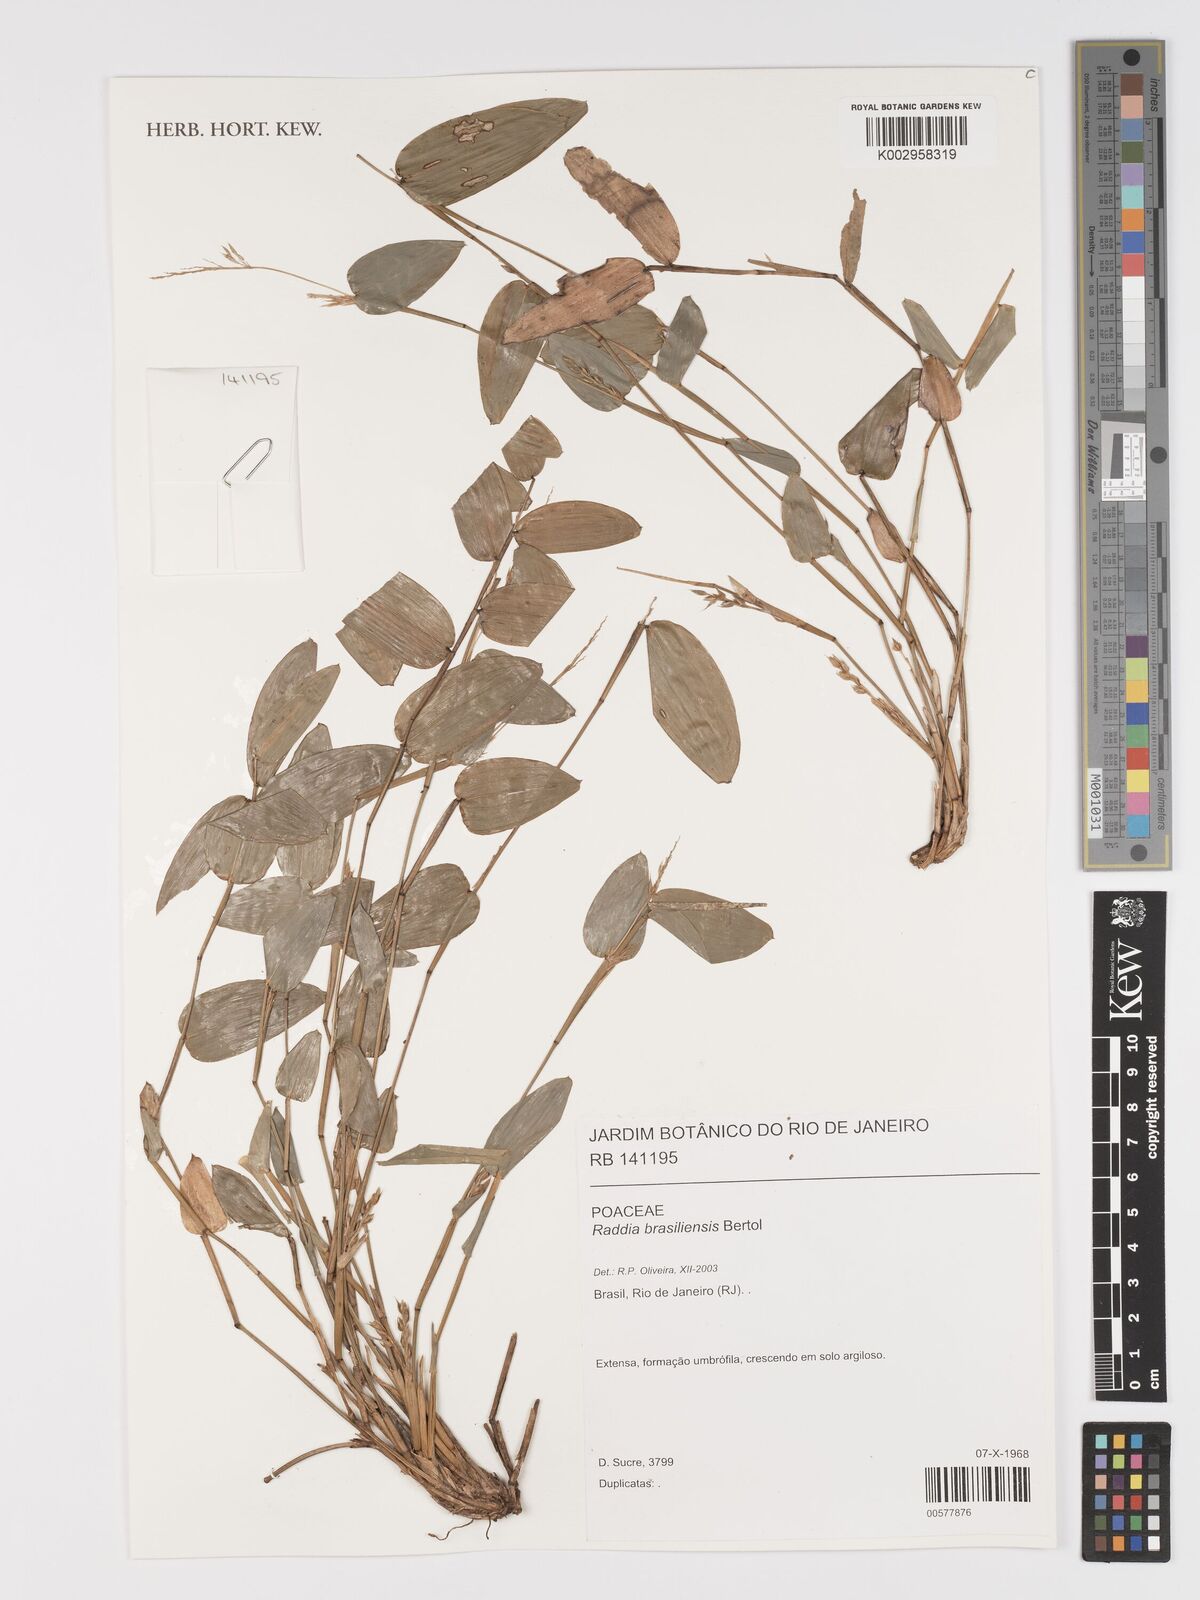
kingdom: Plantae
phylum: Tracheophyta
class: Liliopsida
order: Poales
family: Poaceae
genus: Raddia
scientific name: Raddia brasiliensis
